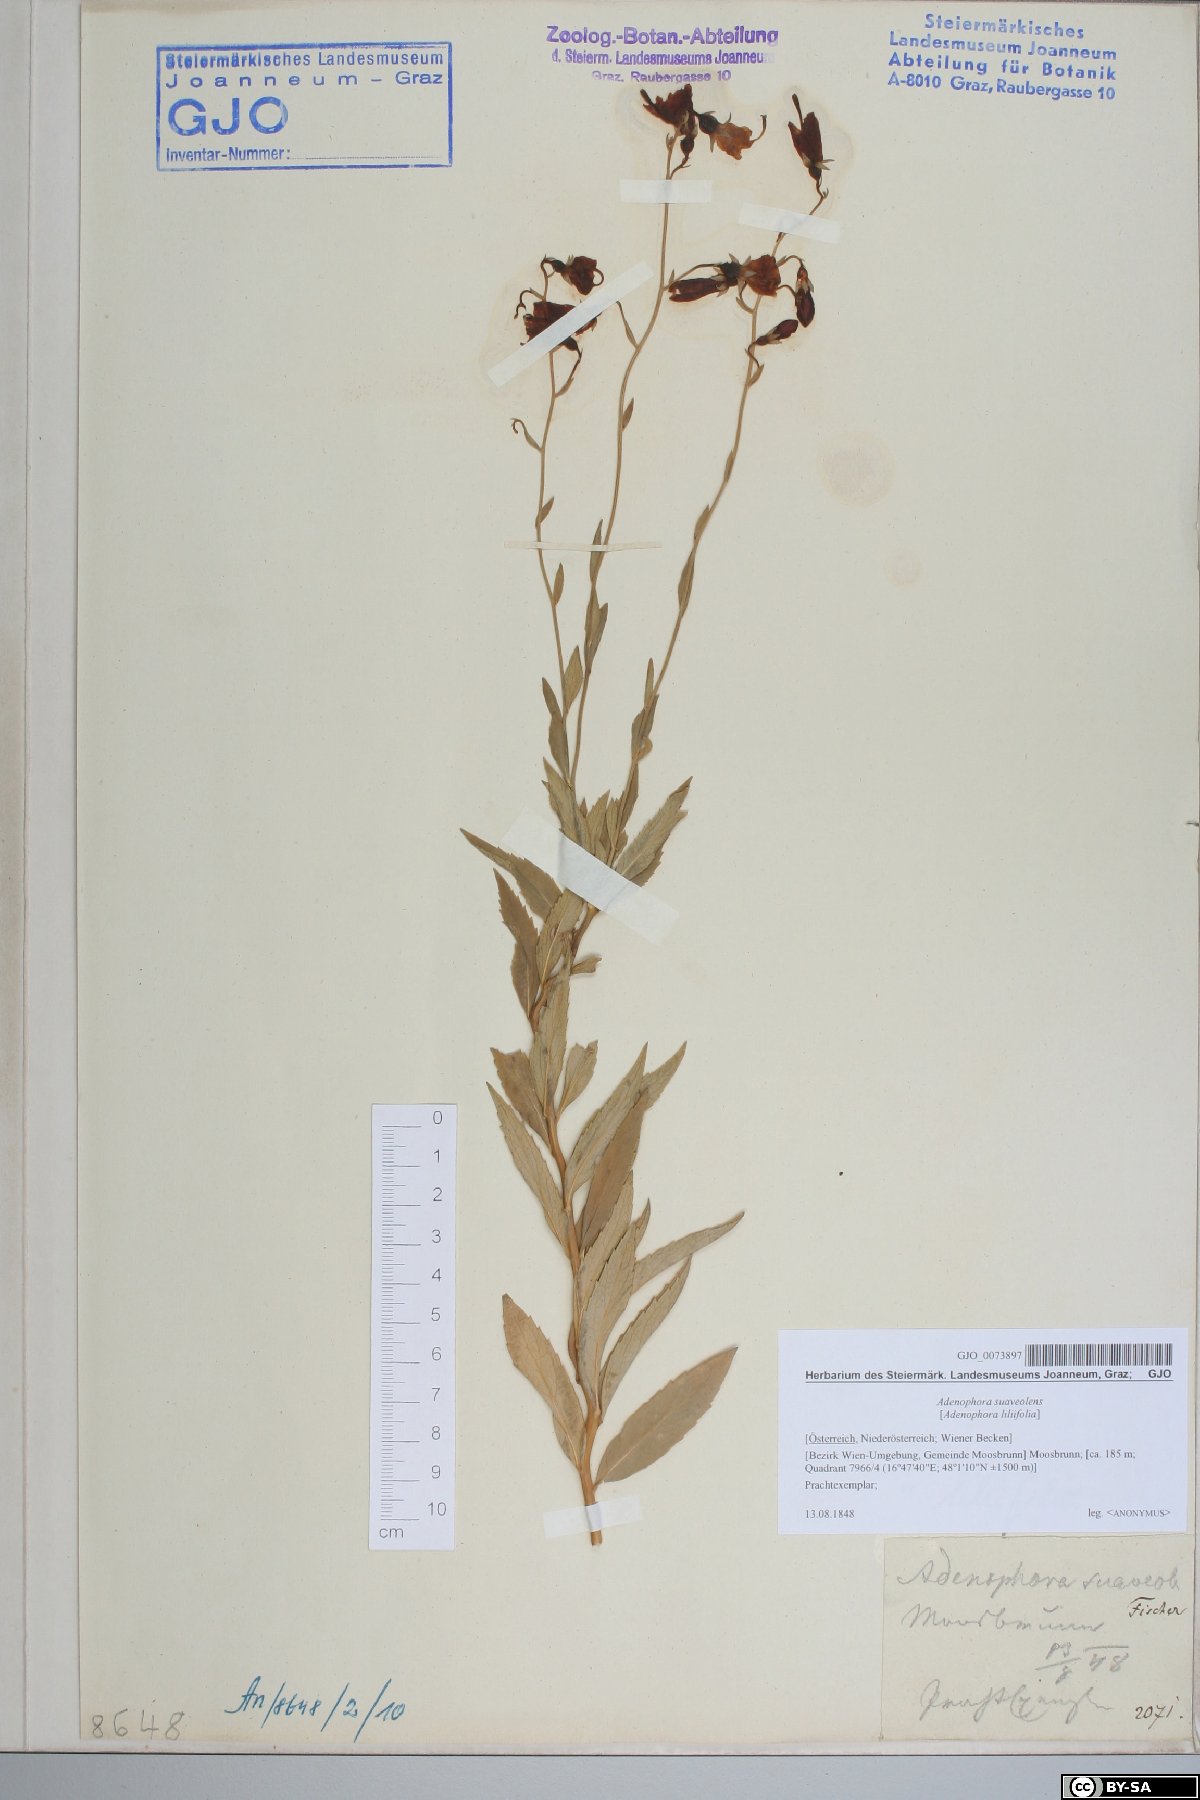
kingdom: Plantae
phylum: Tracheophyta
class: Magnoliopsida
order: Asterales
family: Campanulaceae
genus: Adenophora
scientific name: Adenophora liliifolia
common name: Lilyleaf ladybells
